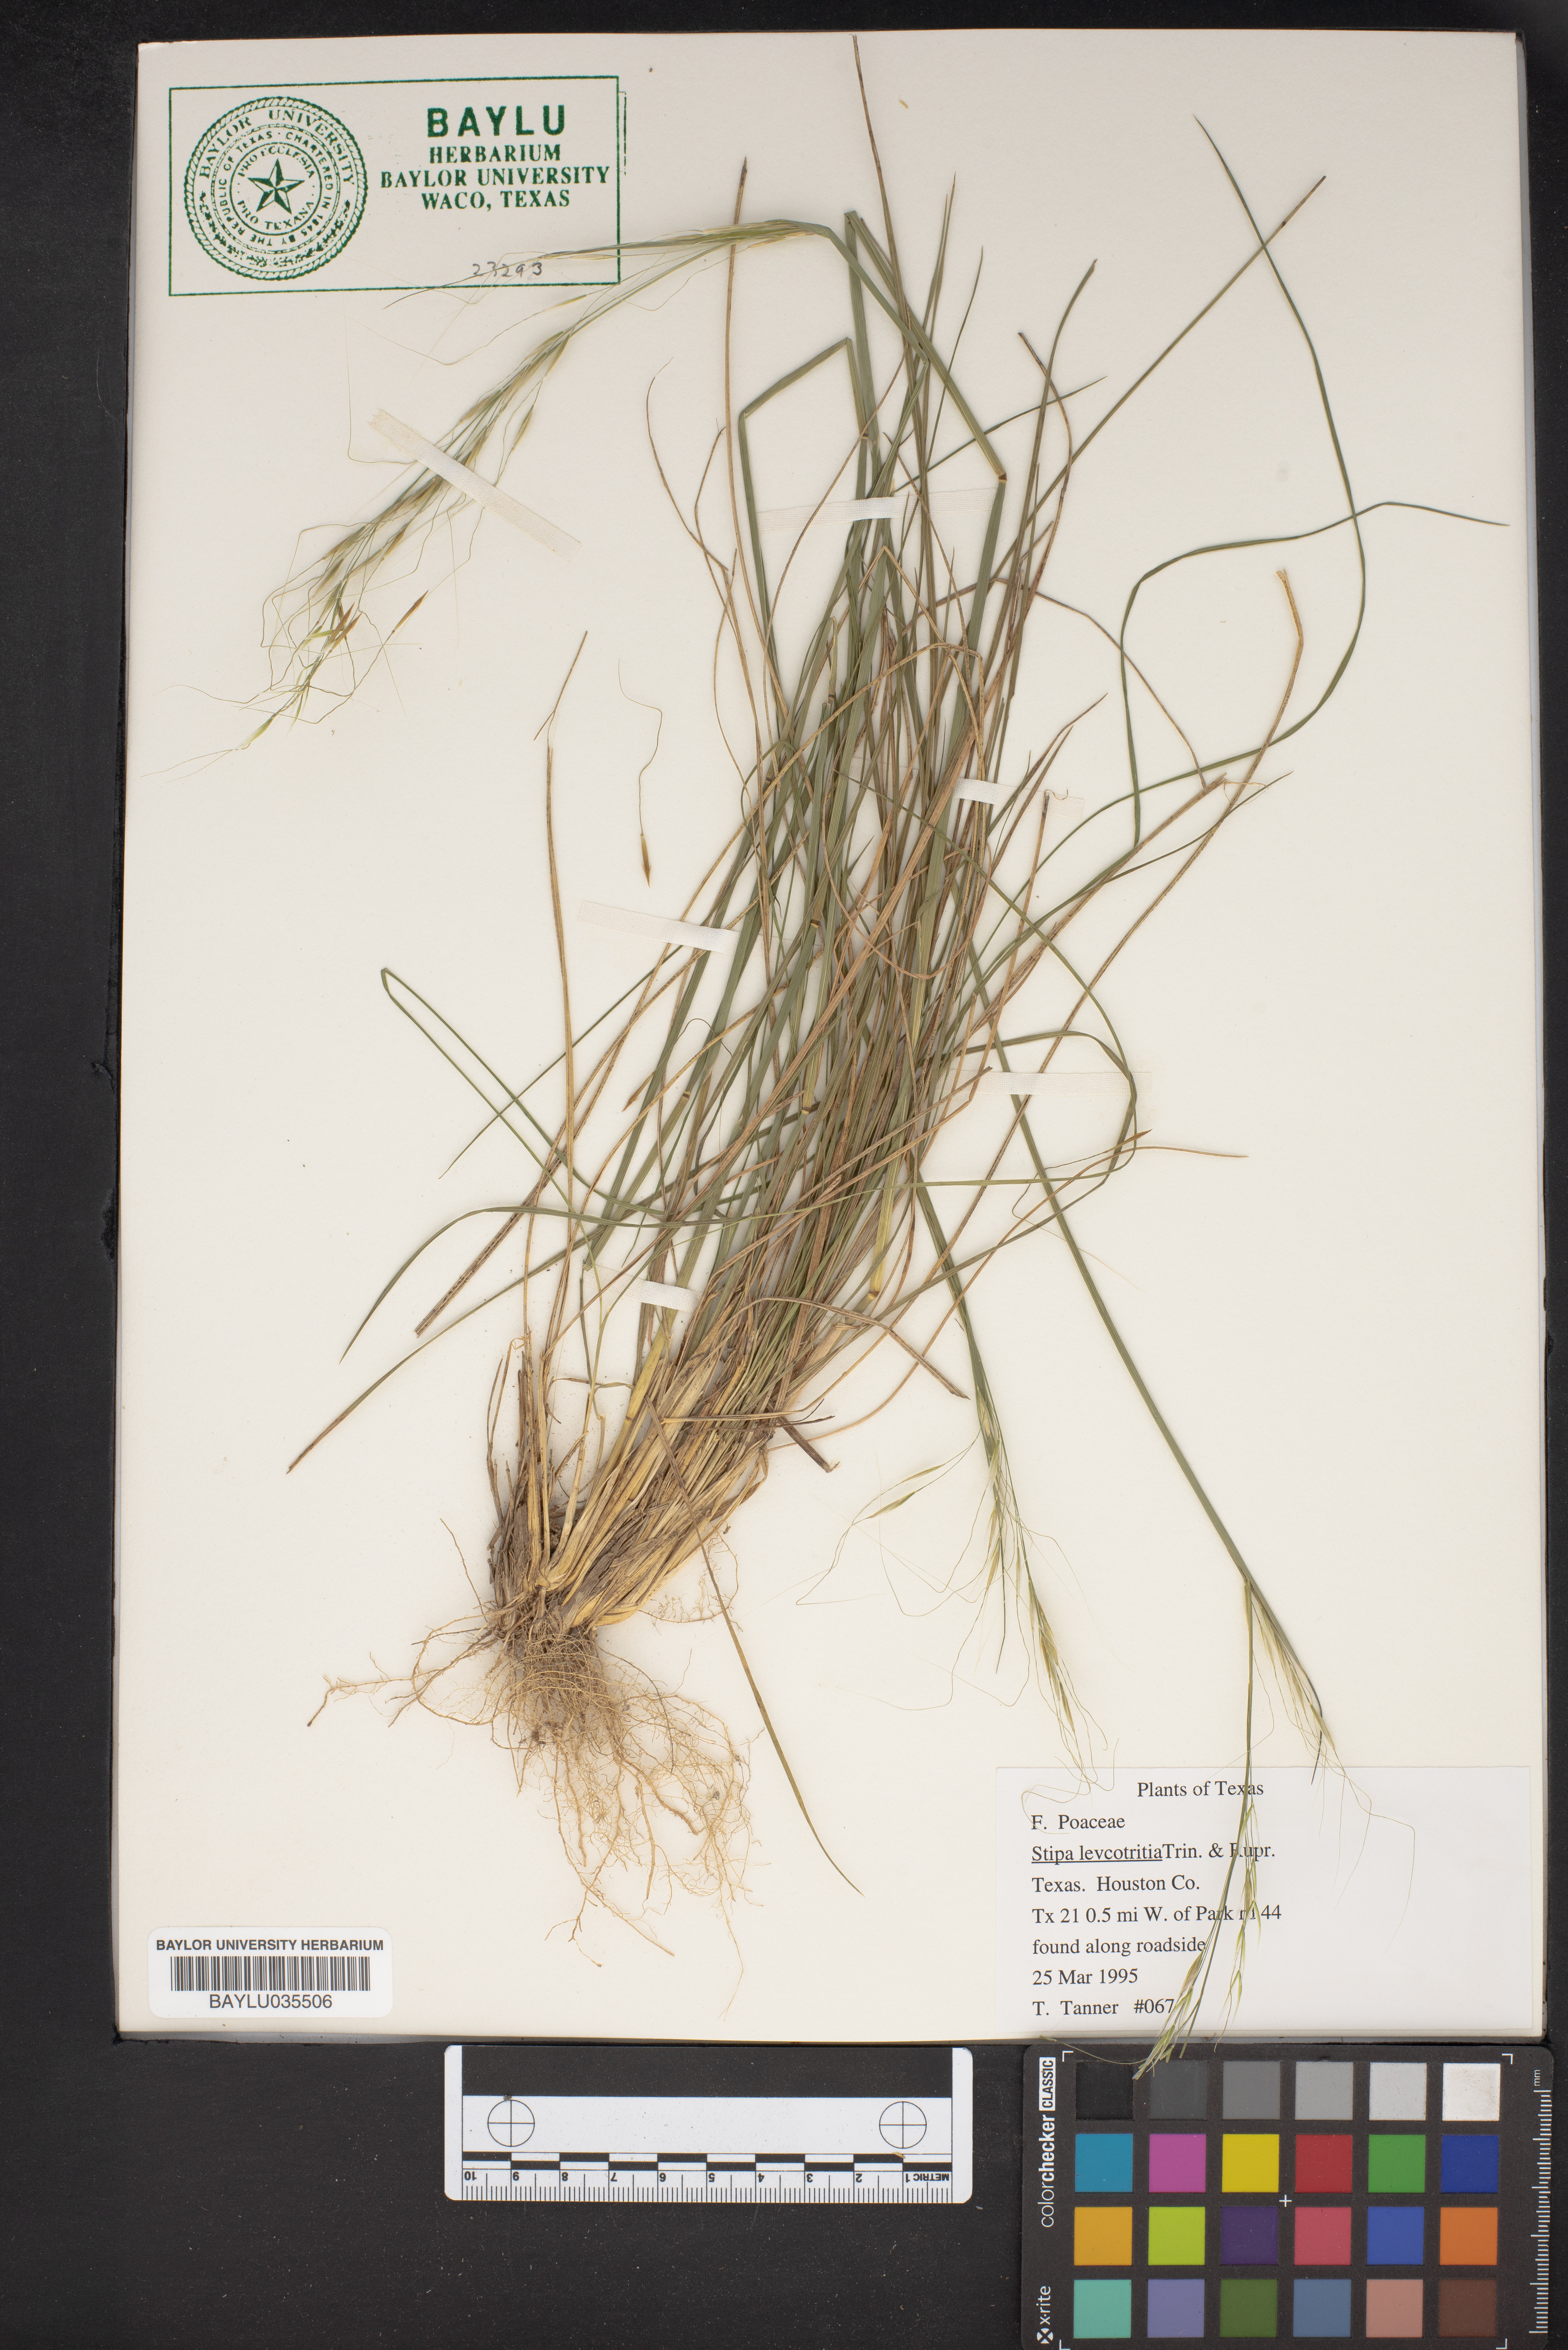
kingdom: Plantae
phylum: Tracheophyta
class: Liliopsida
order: Poales
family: Poaceae
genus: Nassella
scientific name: Nassella leucotricha
